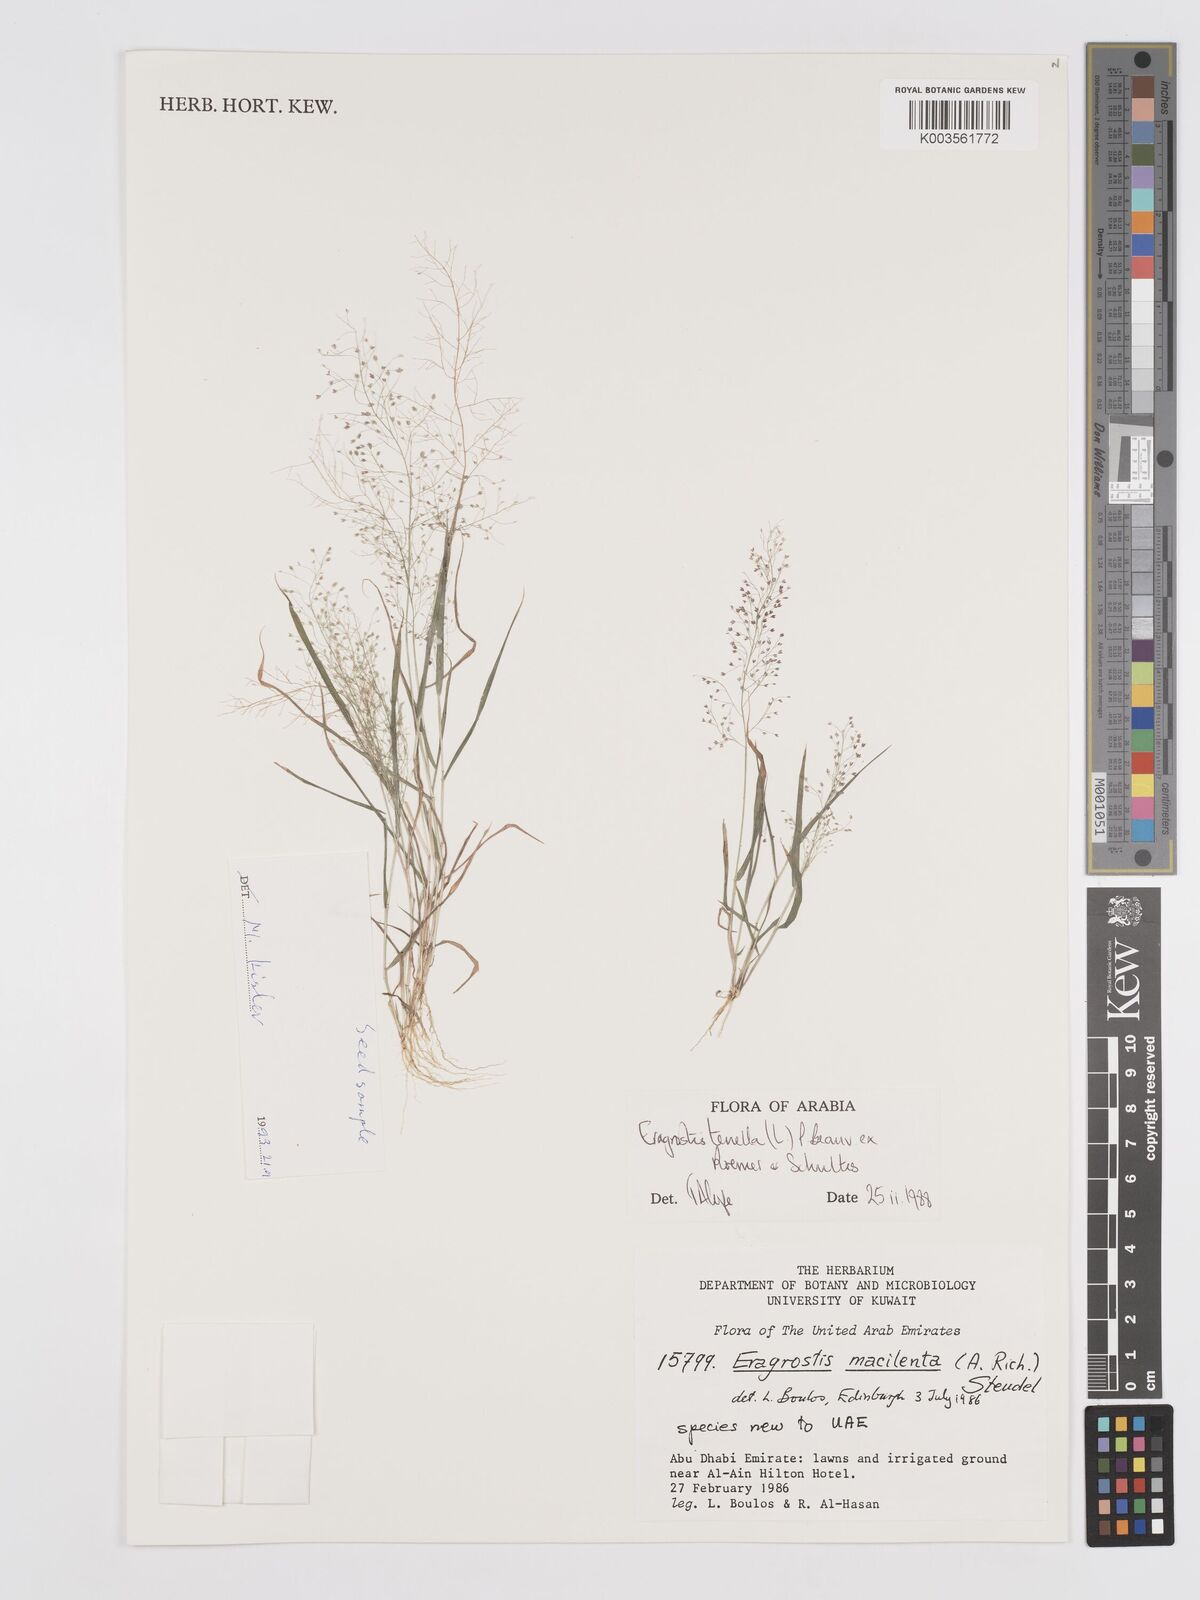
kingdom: Plantae
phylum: Tracheophyta
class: Liliopsida
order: Poales
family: Poaceae
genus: Eragrostis
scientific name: Eragrostis tenella
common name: Japanese lovegrass
